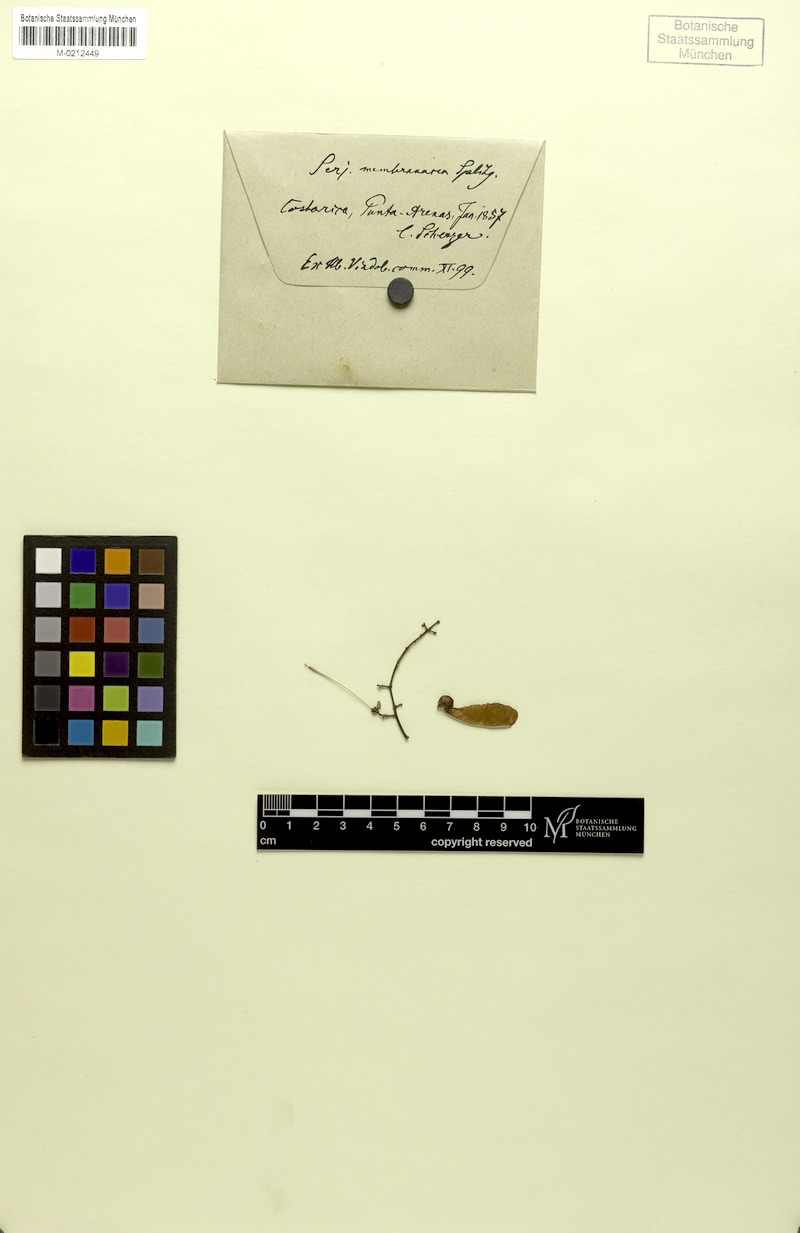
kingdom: Plantae
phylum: Tracheophyta
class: Magnoliopsida
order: Sapindales
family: Sapindaceae
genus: Serjania
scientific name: Serjania membranacea
